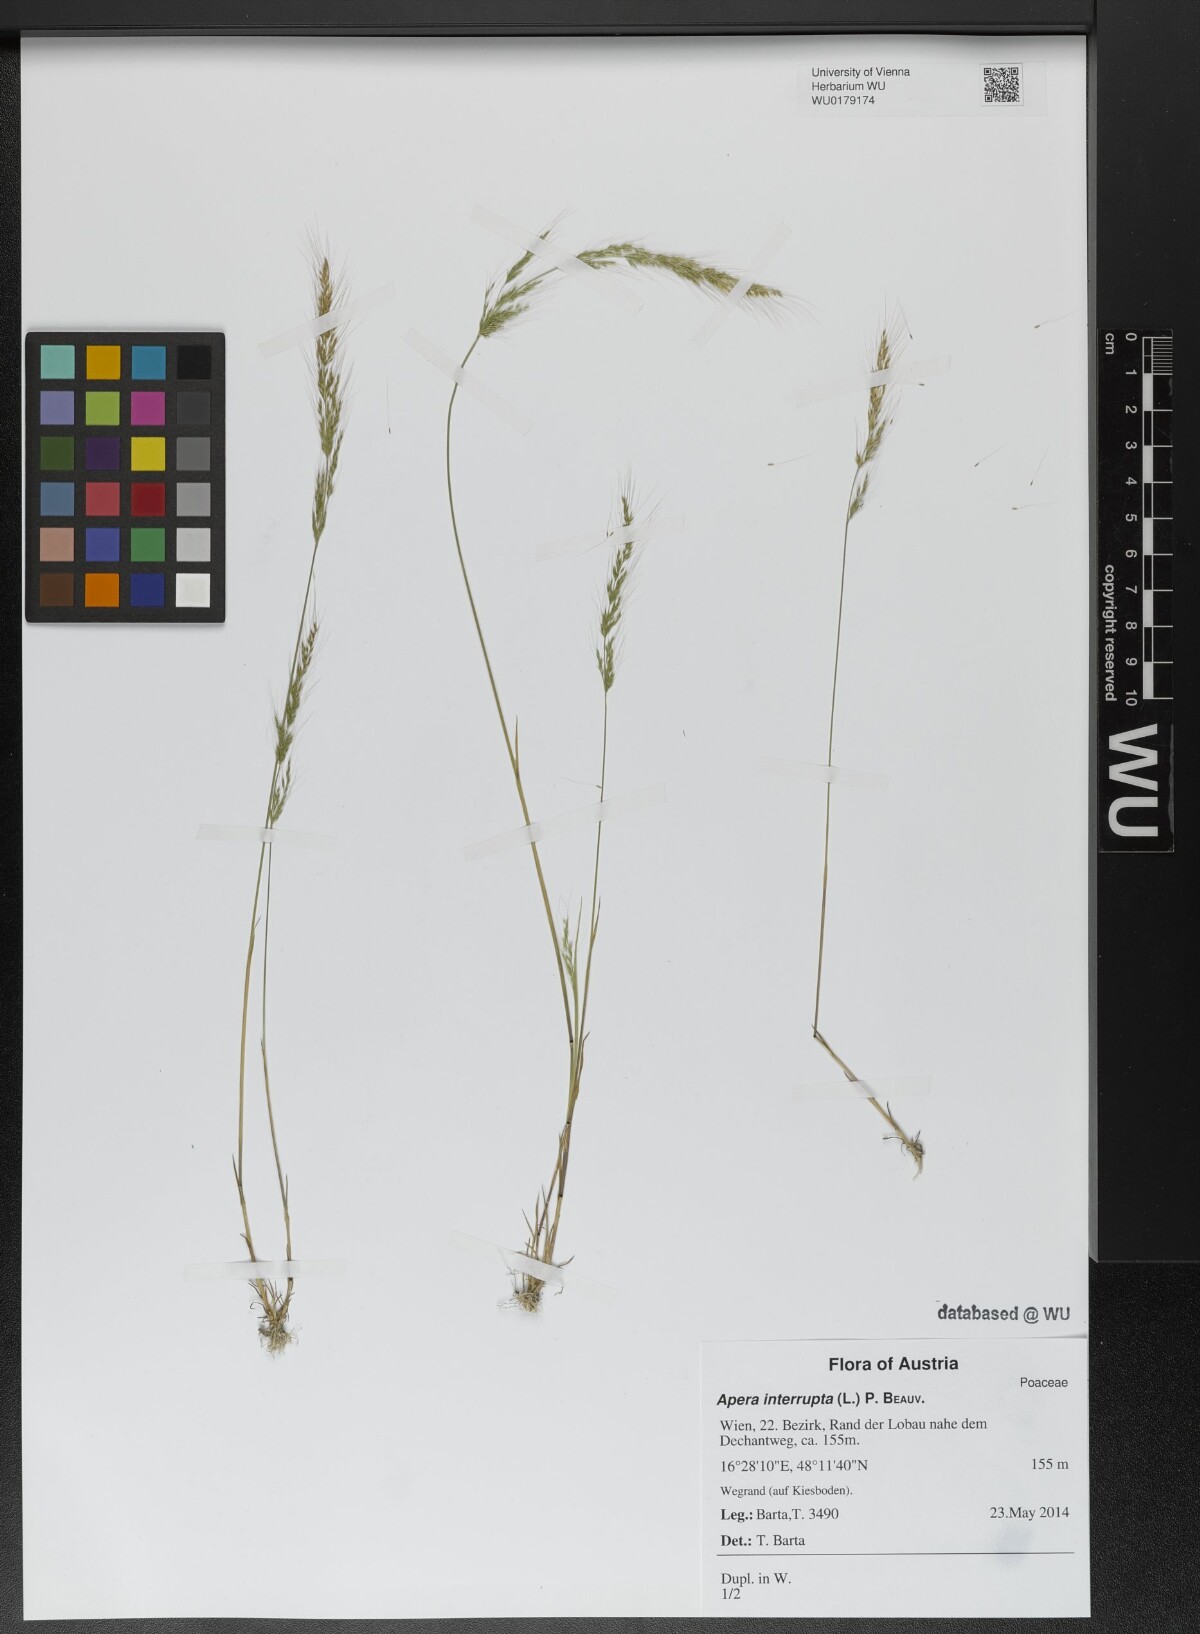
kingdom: Plantae
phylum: Tracheophyta
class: Liliopsida
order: Poales
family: Poaceae
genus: Apera
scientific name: Apera interrupta
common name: Dense silky-bent
